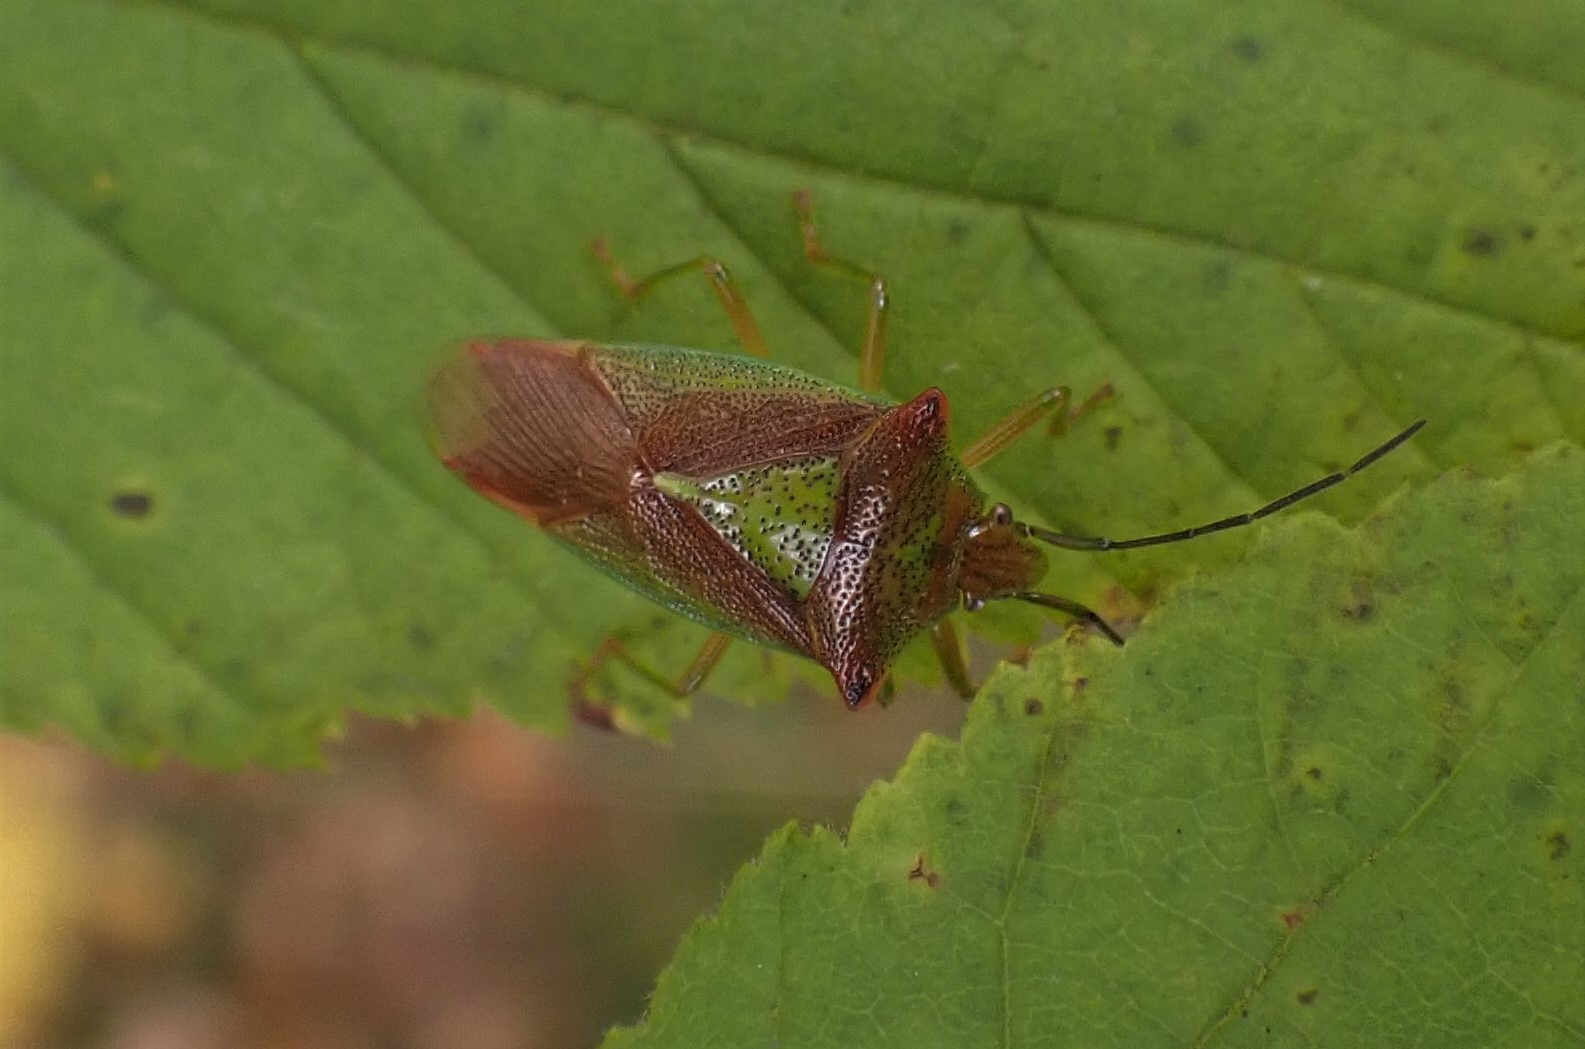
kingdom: Animalia
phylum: Arthropoda
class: Insecta
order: Hemiptera
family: Acanthosomatidae
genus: Acanthosoma
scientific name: Acanthosoma haemorrhoidale
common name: Stor løvtæge
